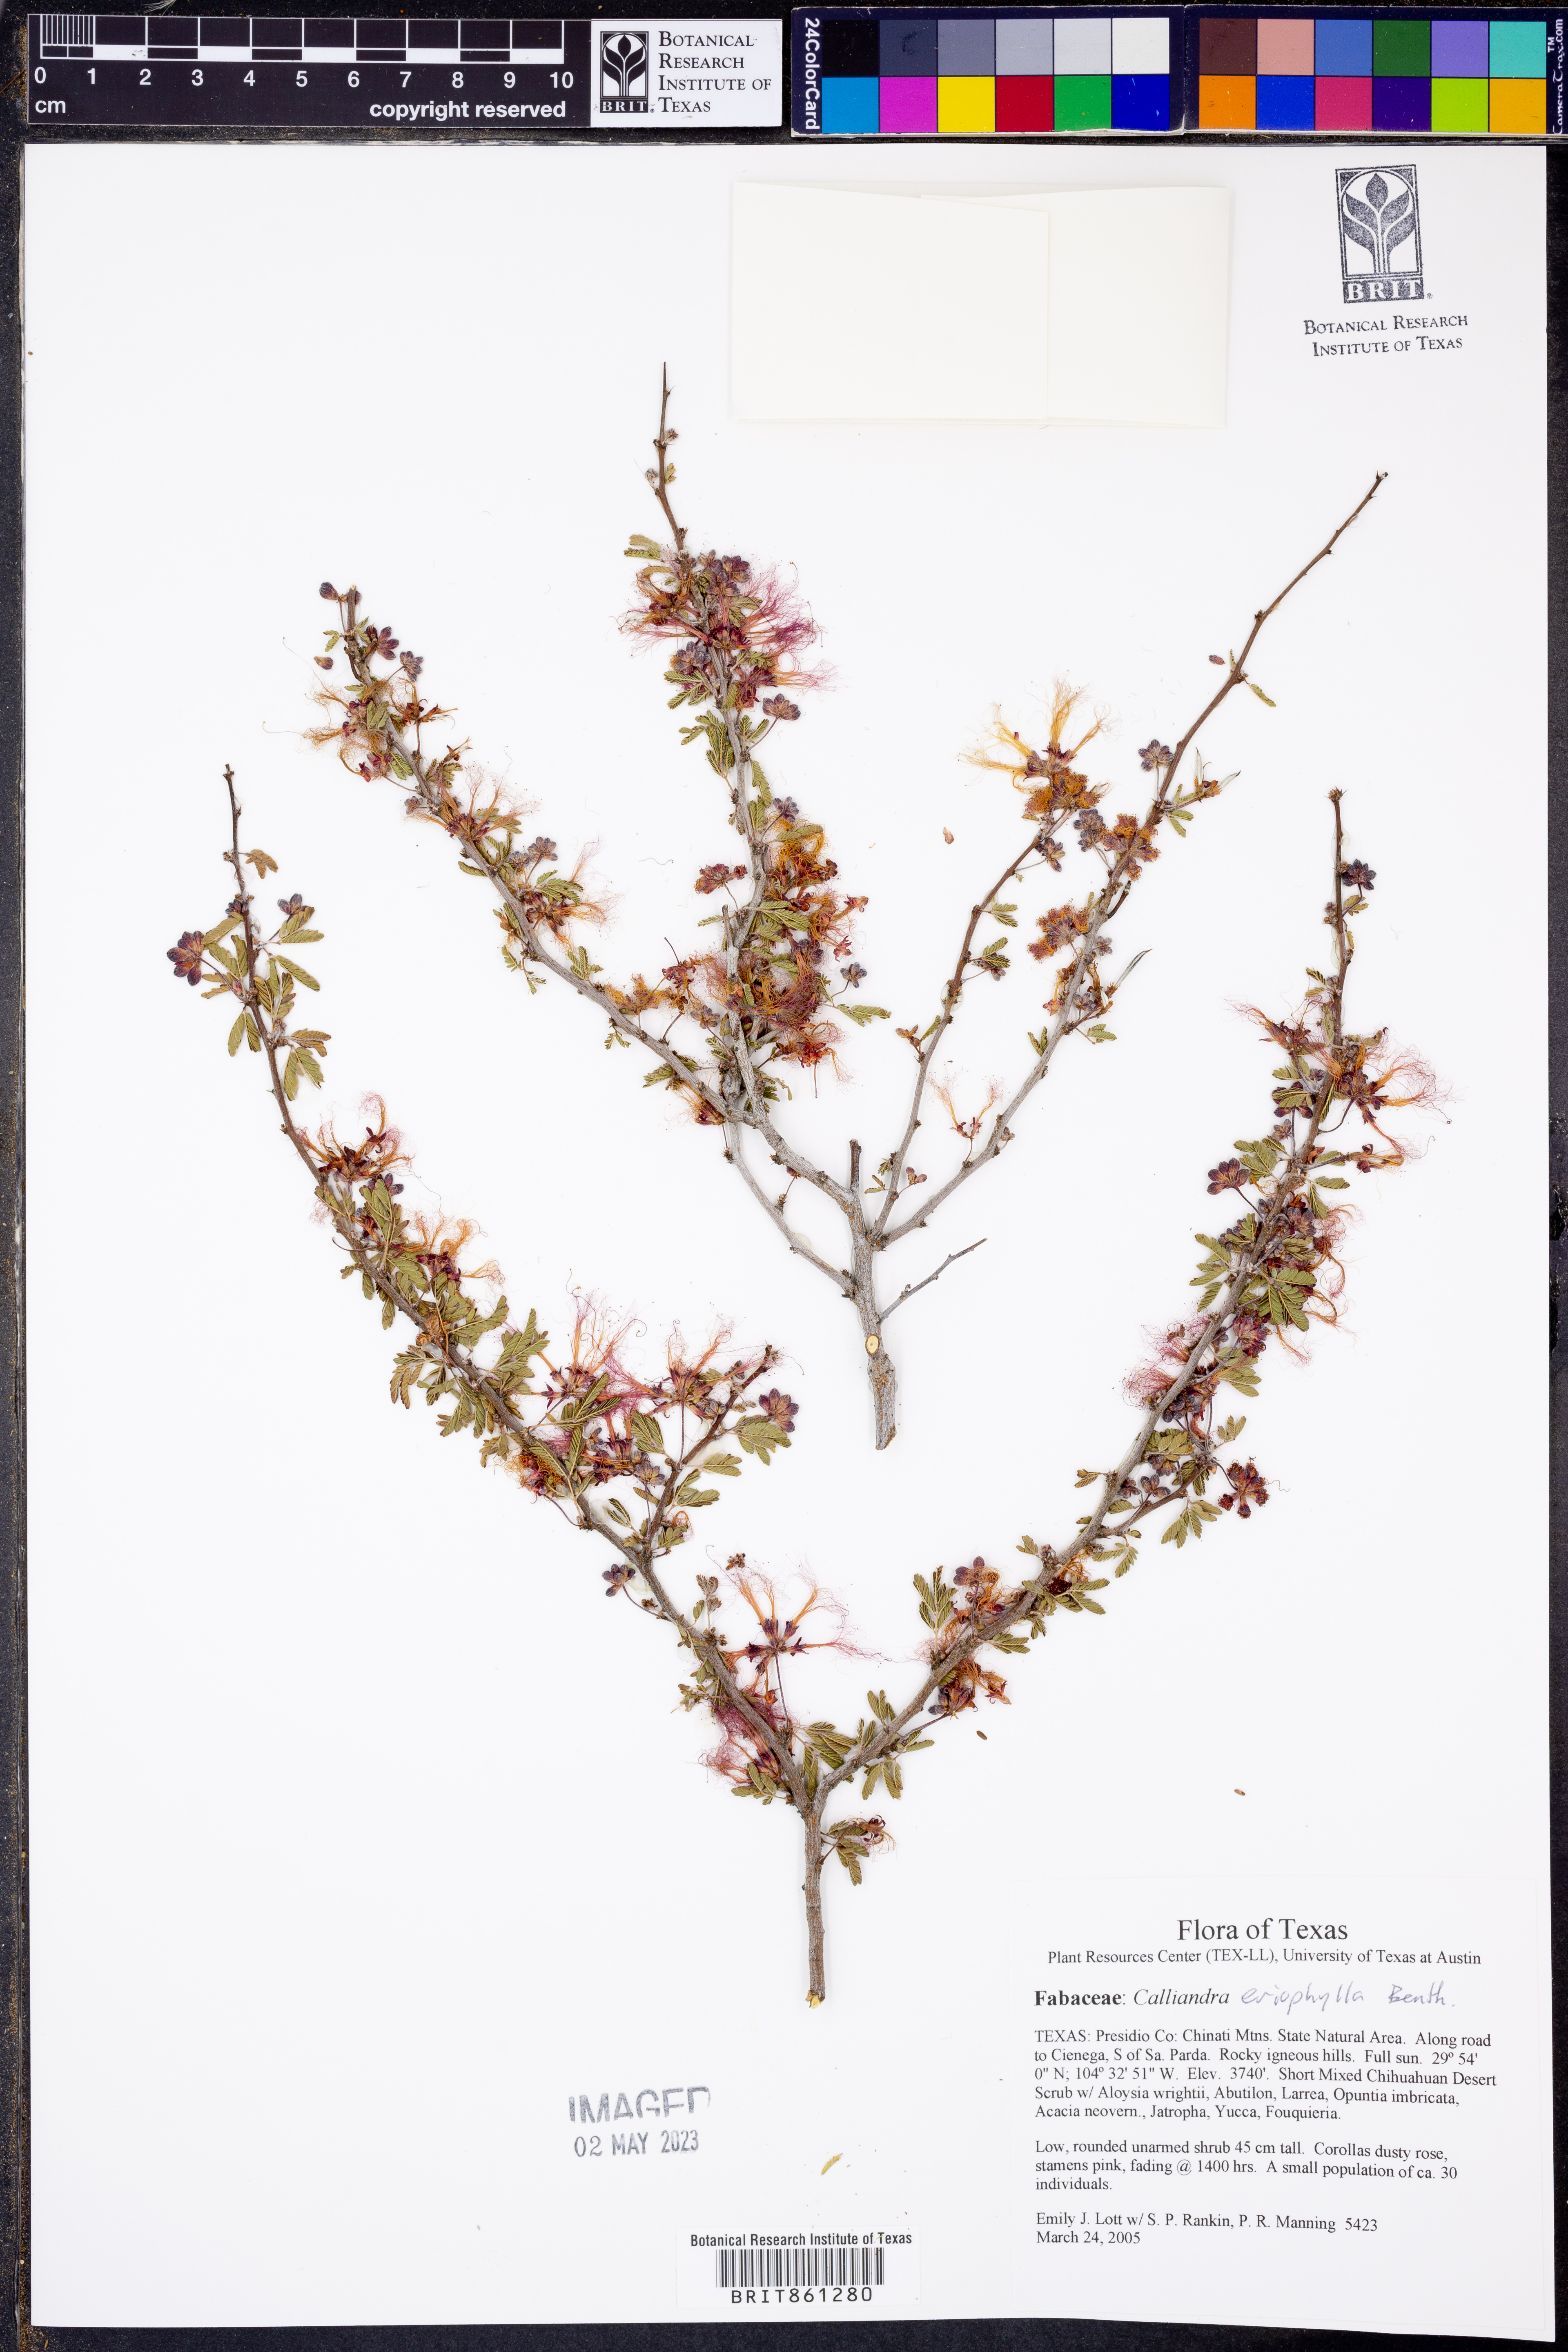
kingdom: Plantae
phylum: Tracheophyta
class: Magnoliopsida
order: Fabales
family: Fabaceae
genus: Calliandra
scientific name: Calliandra eriophylla
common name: Fairy-duster
